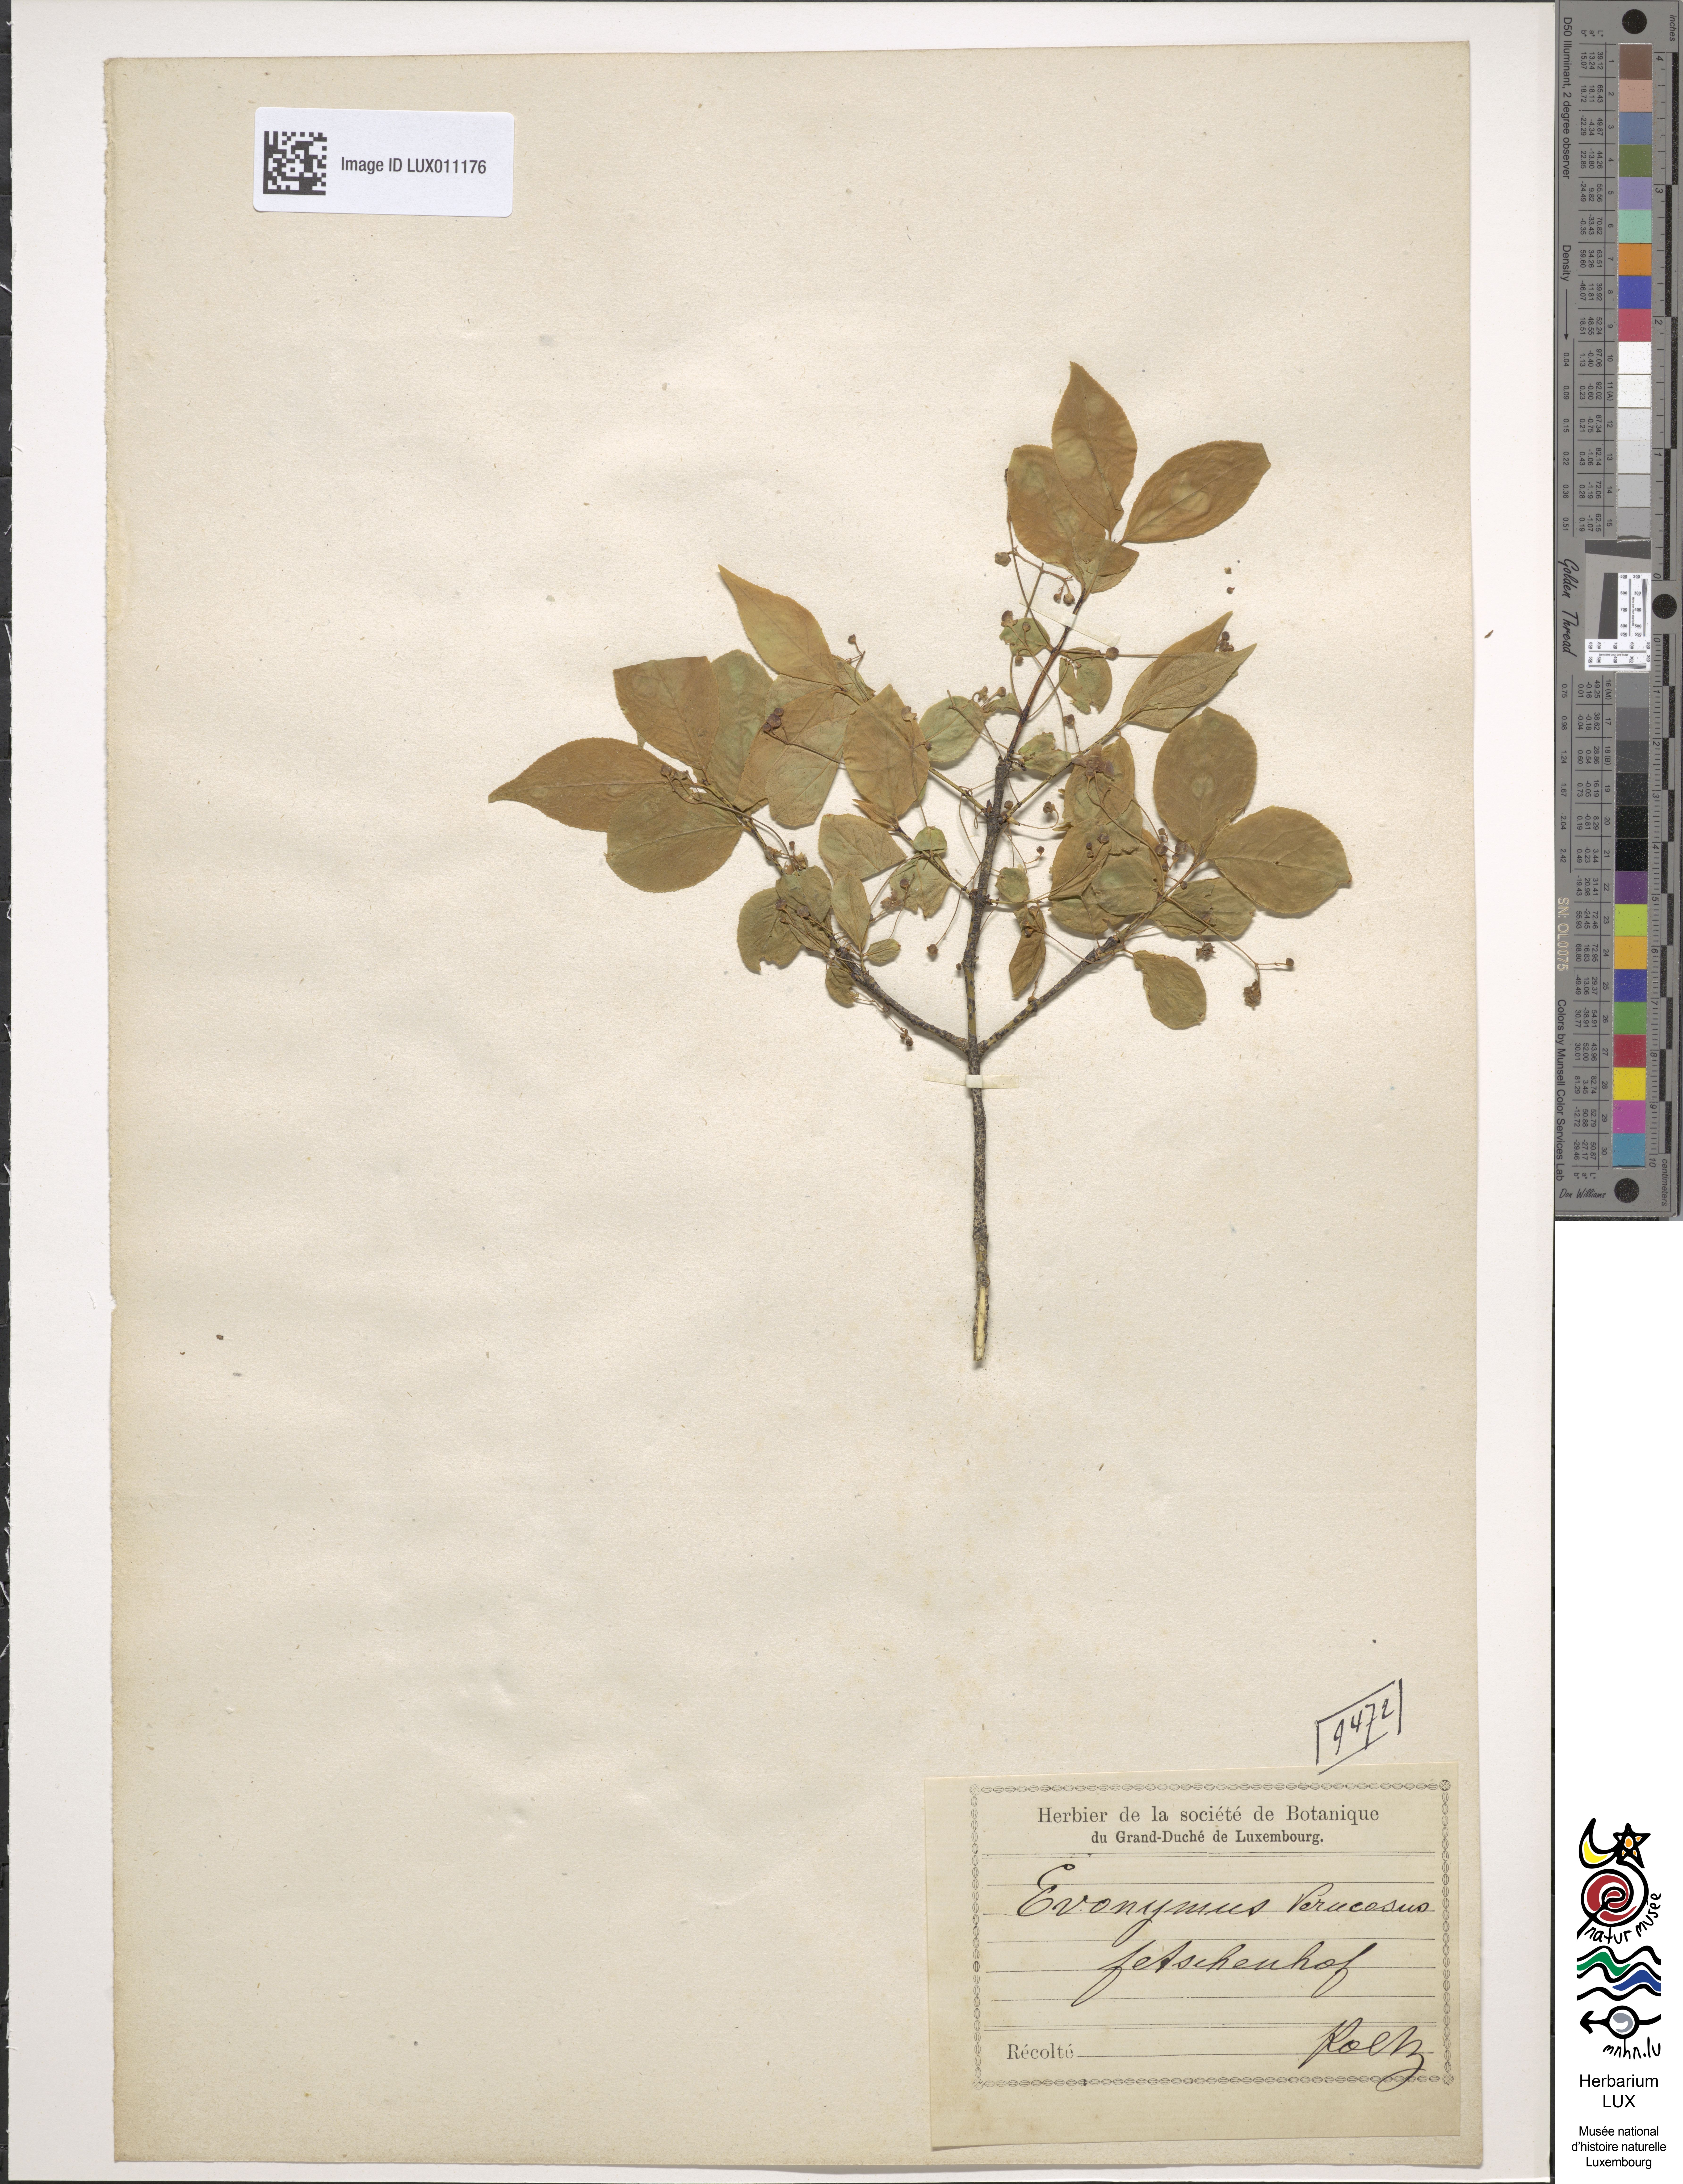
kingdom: Plantae
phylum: Tracheophyta
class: Magnoliopsida
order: Celastrales
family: Celastraceae
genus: Euonymus
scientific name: Euonymus verrucosus
